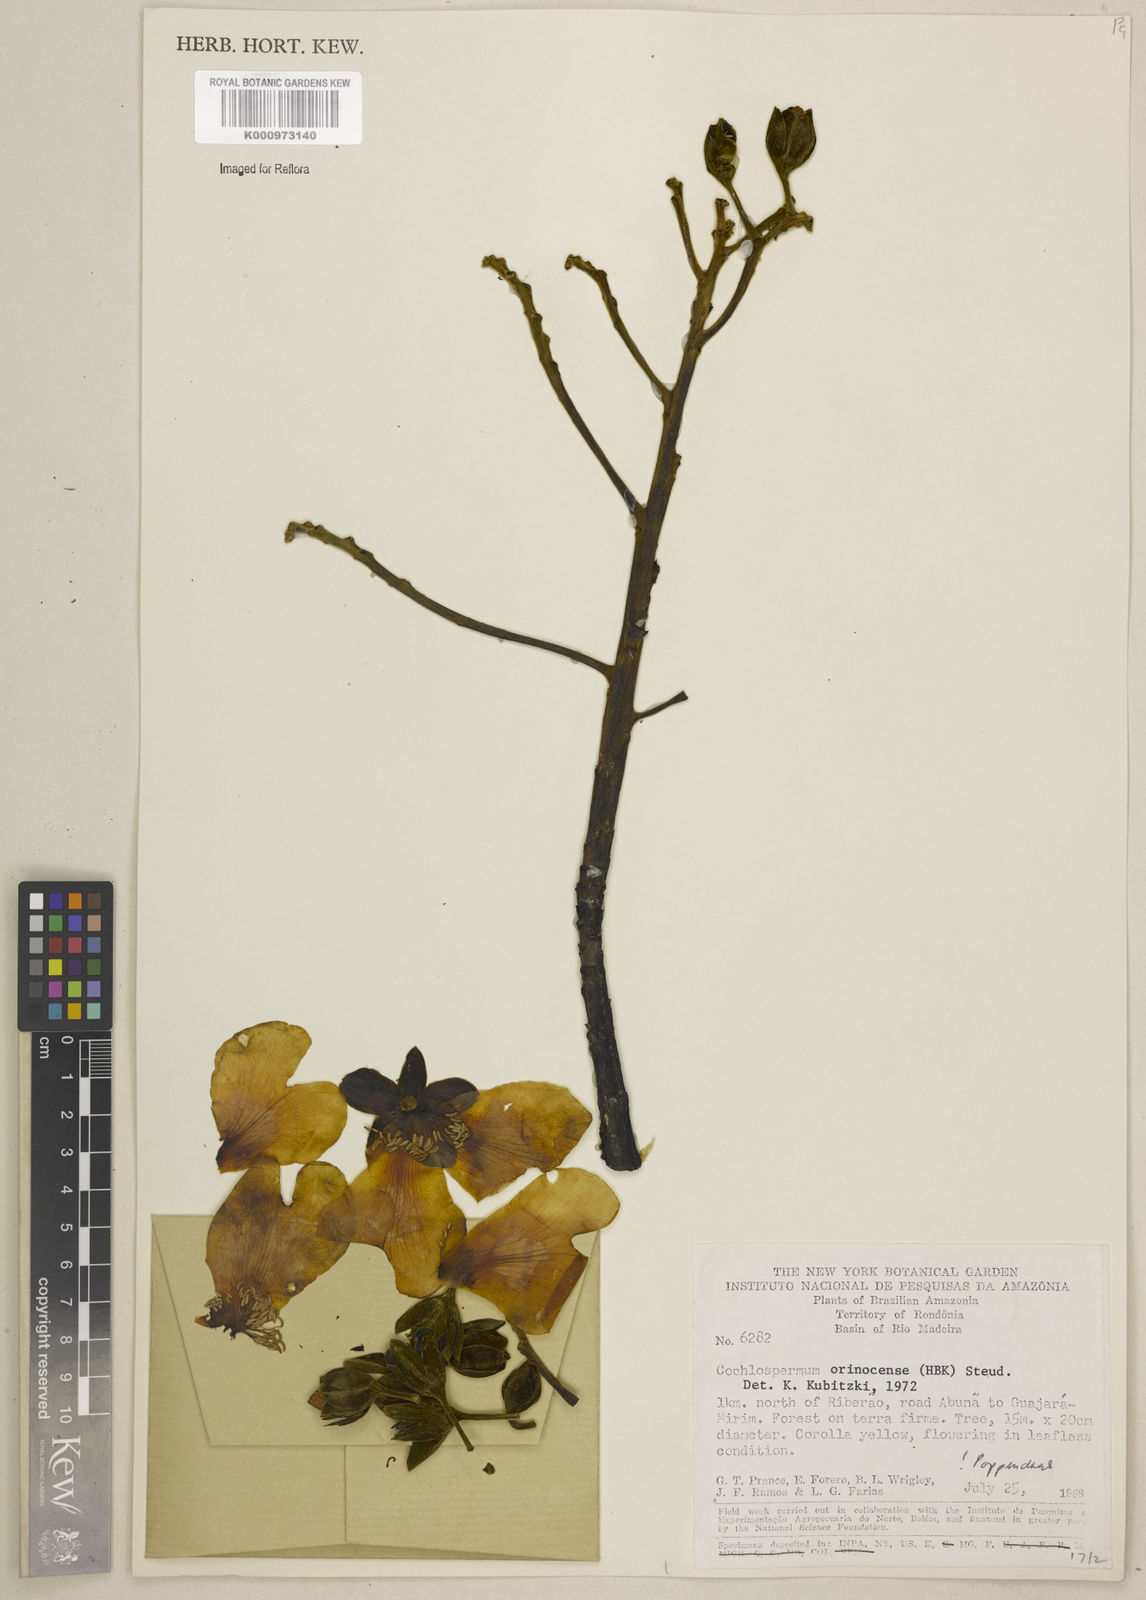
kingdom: Plantae
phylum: Tracheophyta
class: Magnoliopsida
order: Malvales
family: Cochlospermaceae
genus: Cochlospermum
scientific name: Cochlospermum orinocense
